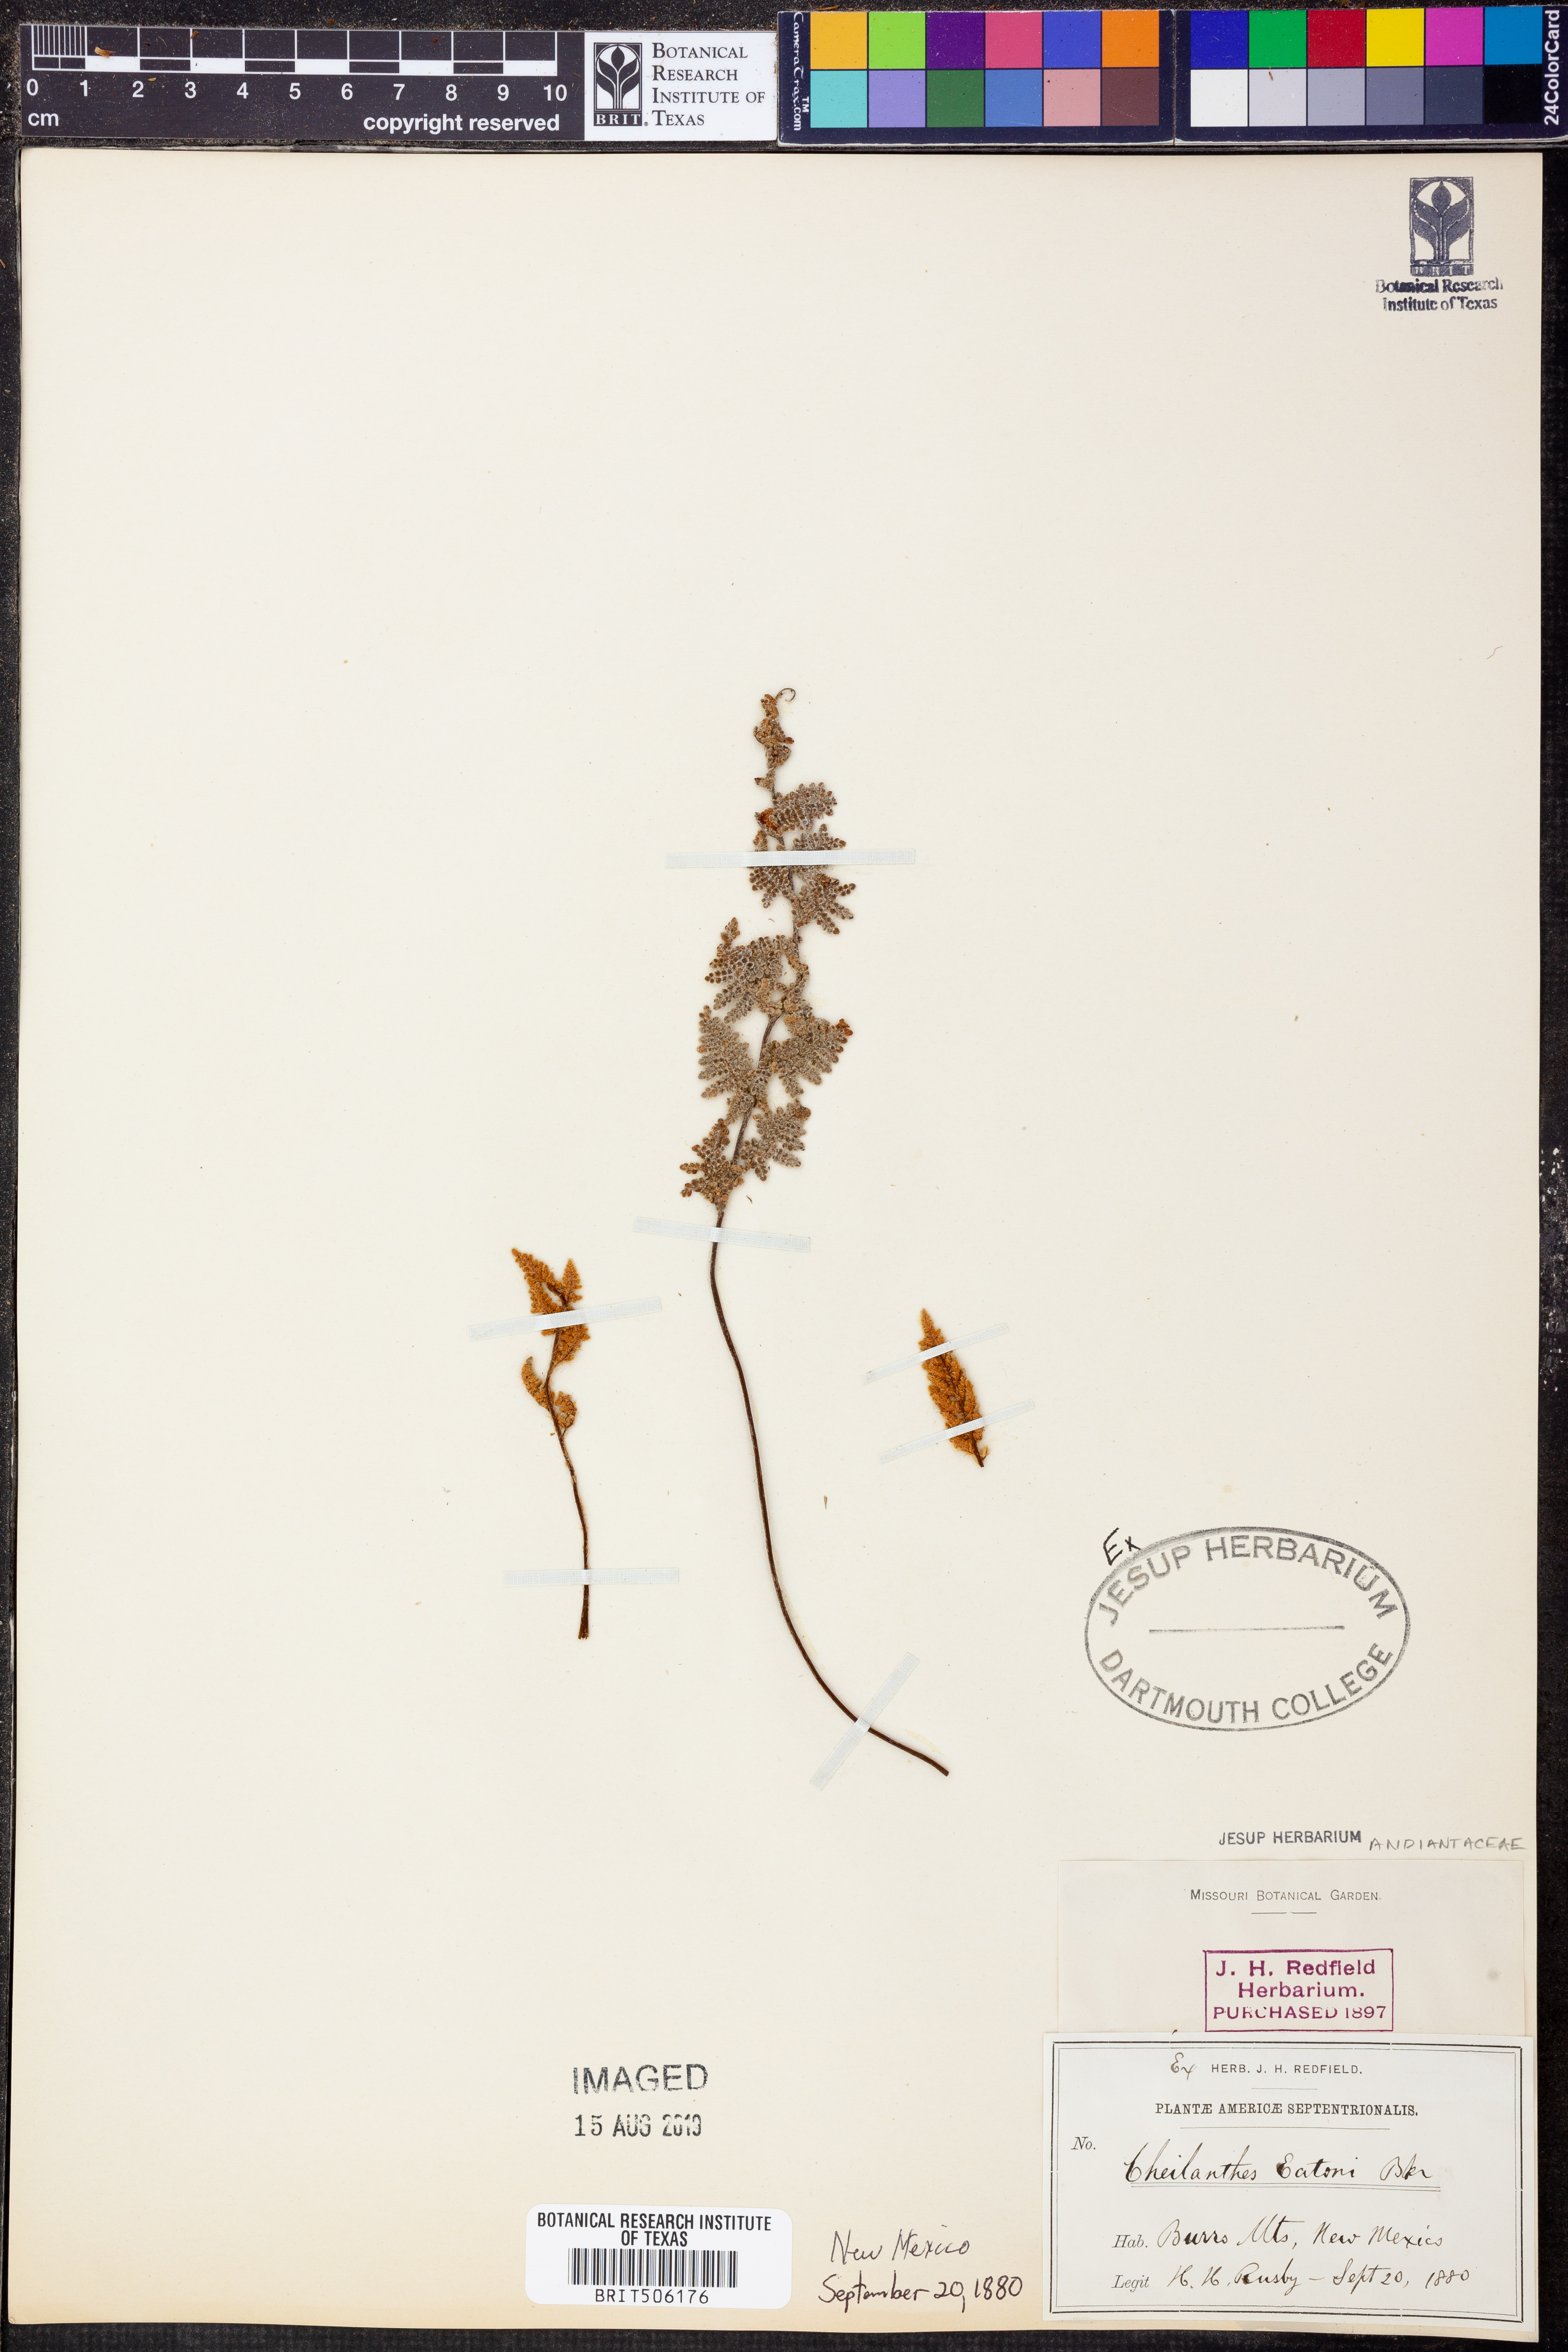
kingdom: Plantae
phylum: Tracheophyta
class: Polypodiopsida
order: Polypodiales
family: Pteridaceae
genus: Myriopteris
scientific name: Myriopteris rufa
